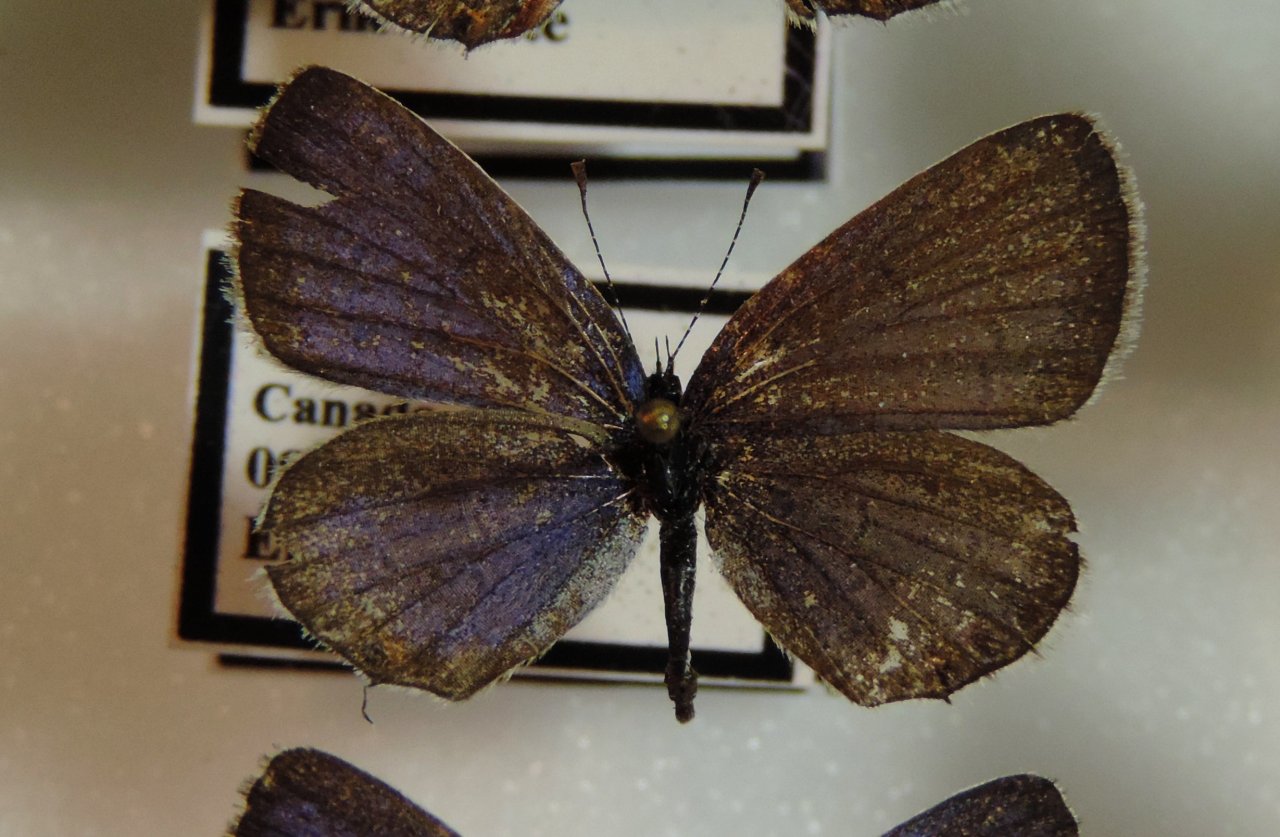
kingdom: Animalia
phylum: Arthropoda
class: Insecta
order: Lepidoptera
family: Lycaenidae
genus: Elkalyce
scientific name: Elkalyce comyntas
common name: Eastern Tailed-Blue
